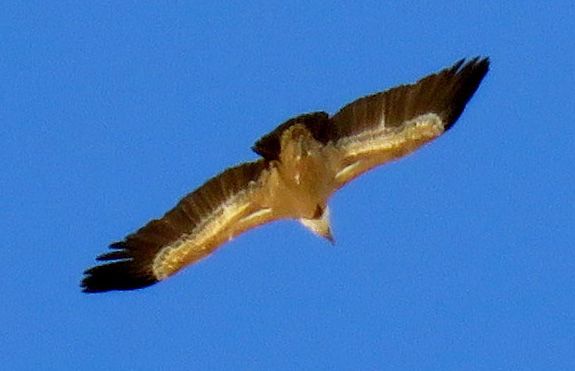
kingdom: Animalia
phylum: Chordata
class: Aves
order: Accipitriformes
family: Accipitridae
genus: Gyps
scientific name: Gyps fulvus
